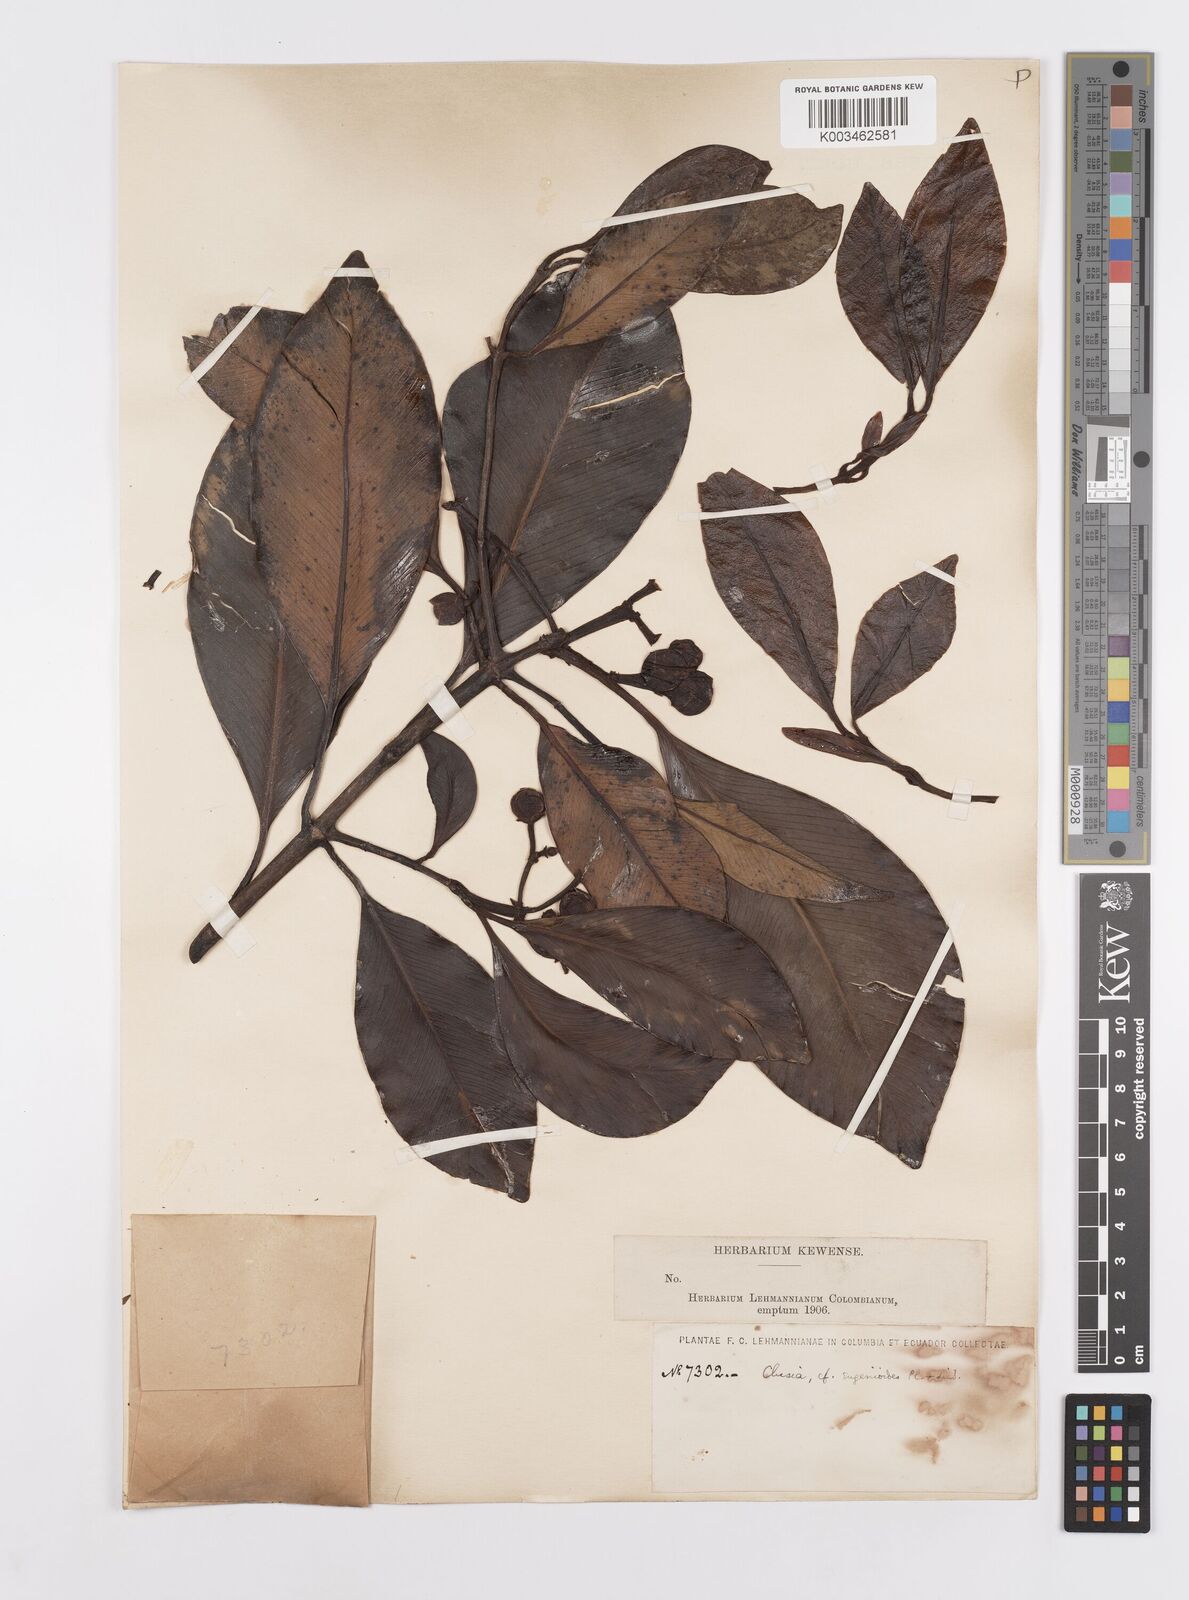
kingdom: Plantae
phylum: Tracheophyta
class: Magnoliopsida
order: Malpighiales
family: Clusiaceae
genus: Clusia
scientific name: Clusia eugenioides
